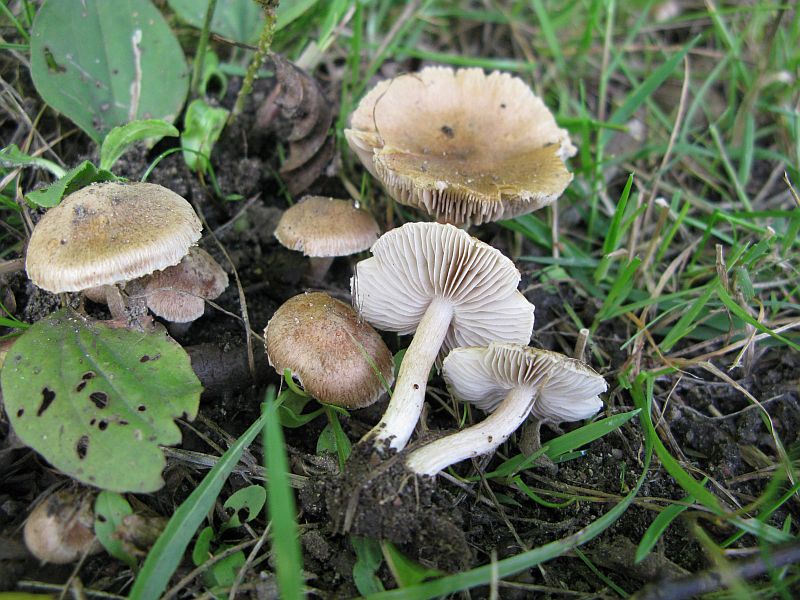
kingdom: Fungi
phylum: Basidiomycota
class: Agaricomycetes
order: Agaricales
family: Inocybaceae
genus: Pseudosperma
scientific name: Pseudosperma
